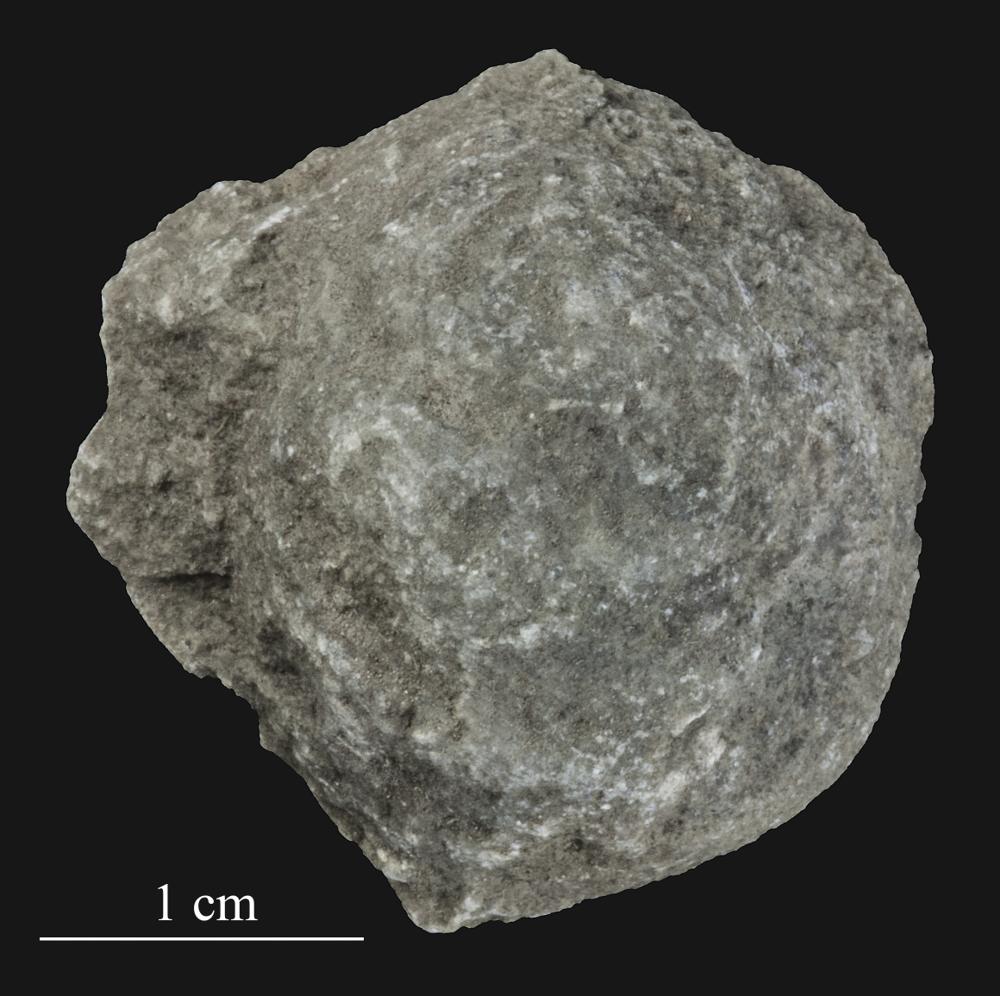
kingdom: Animalia
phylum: Bryozoa
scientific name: Bryozoa
